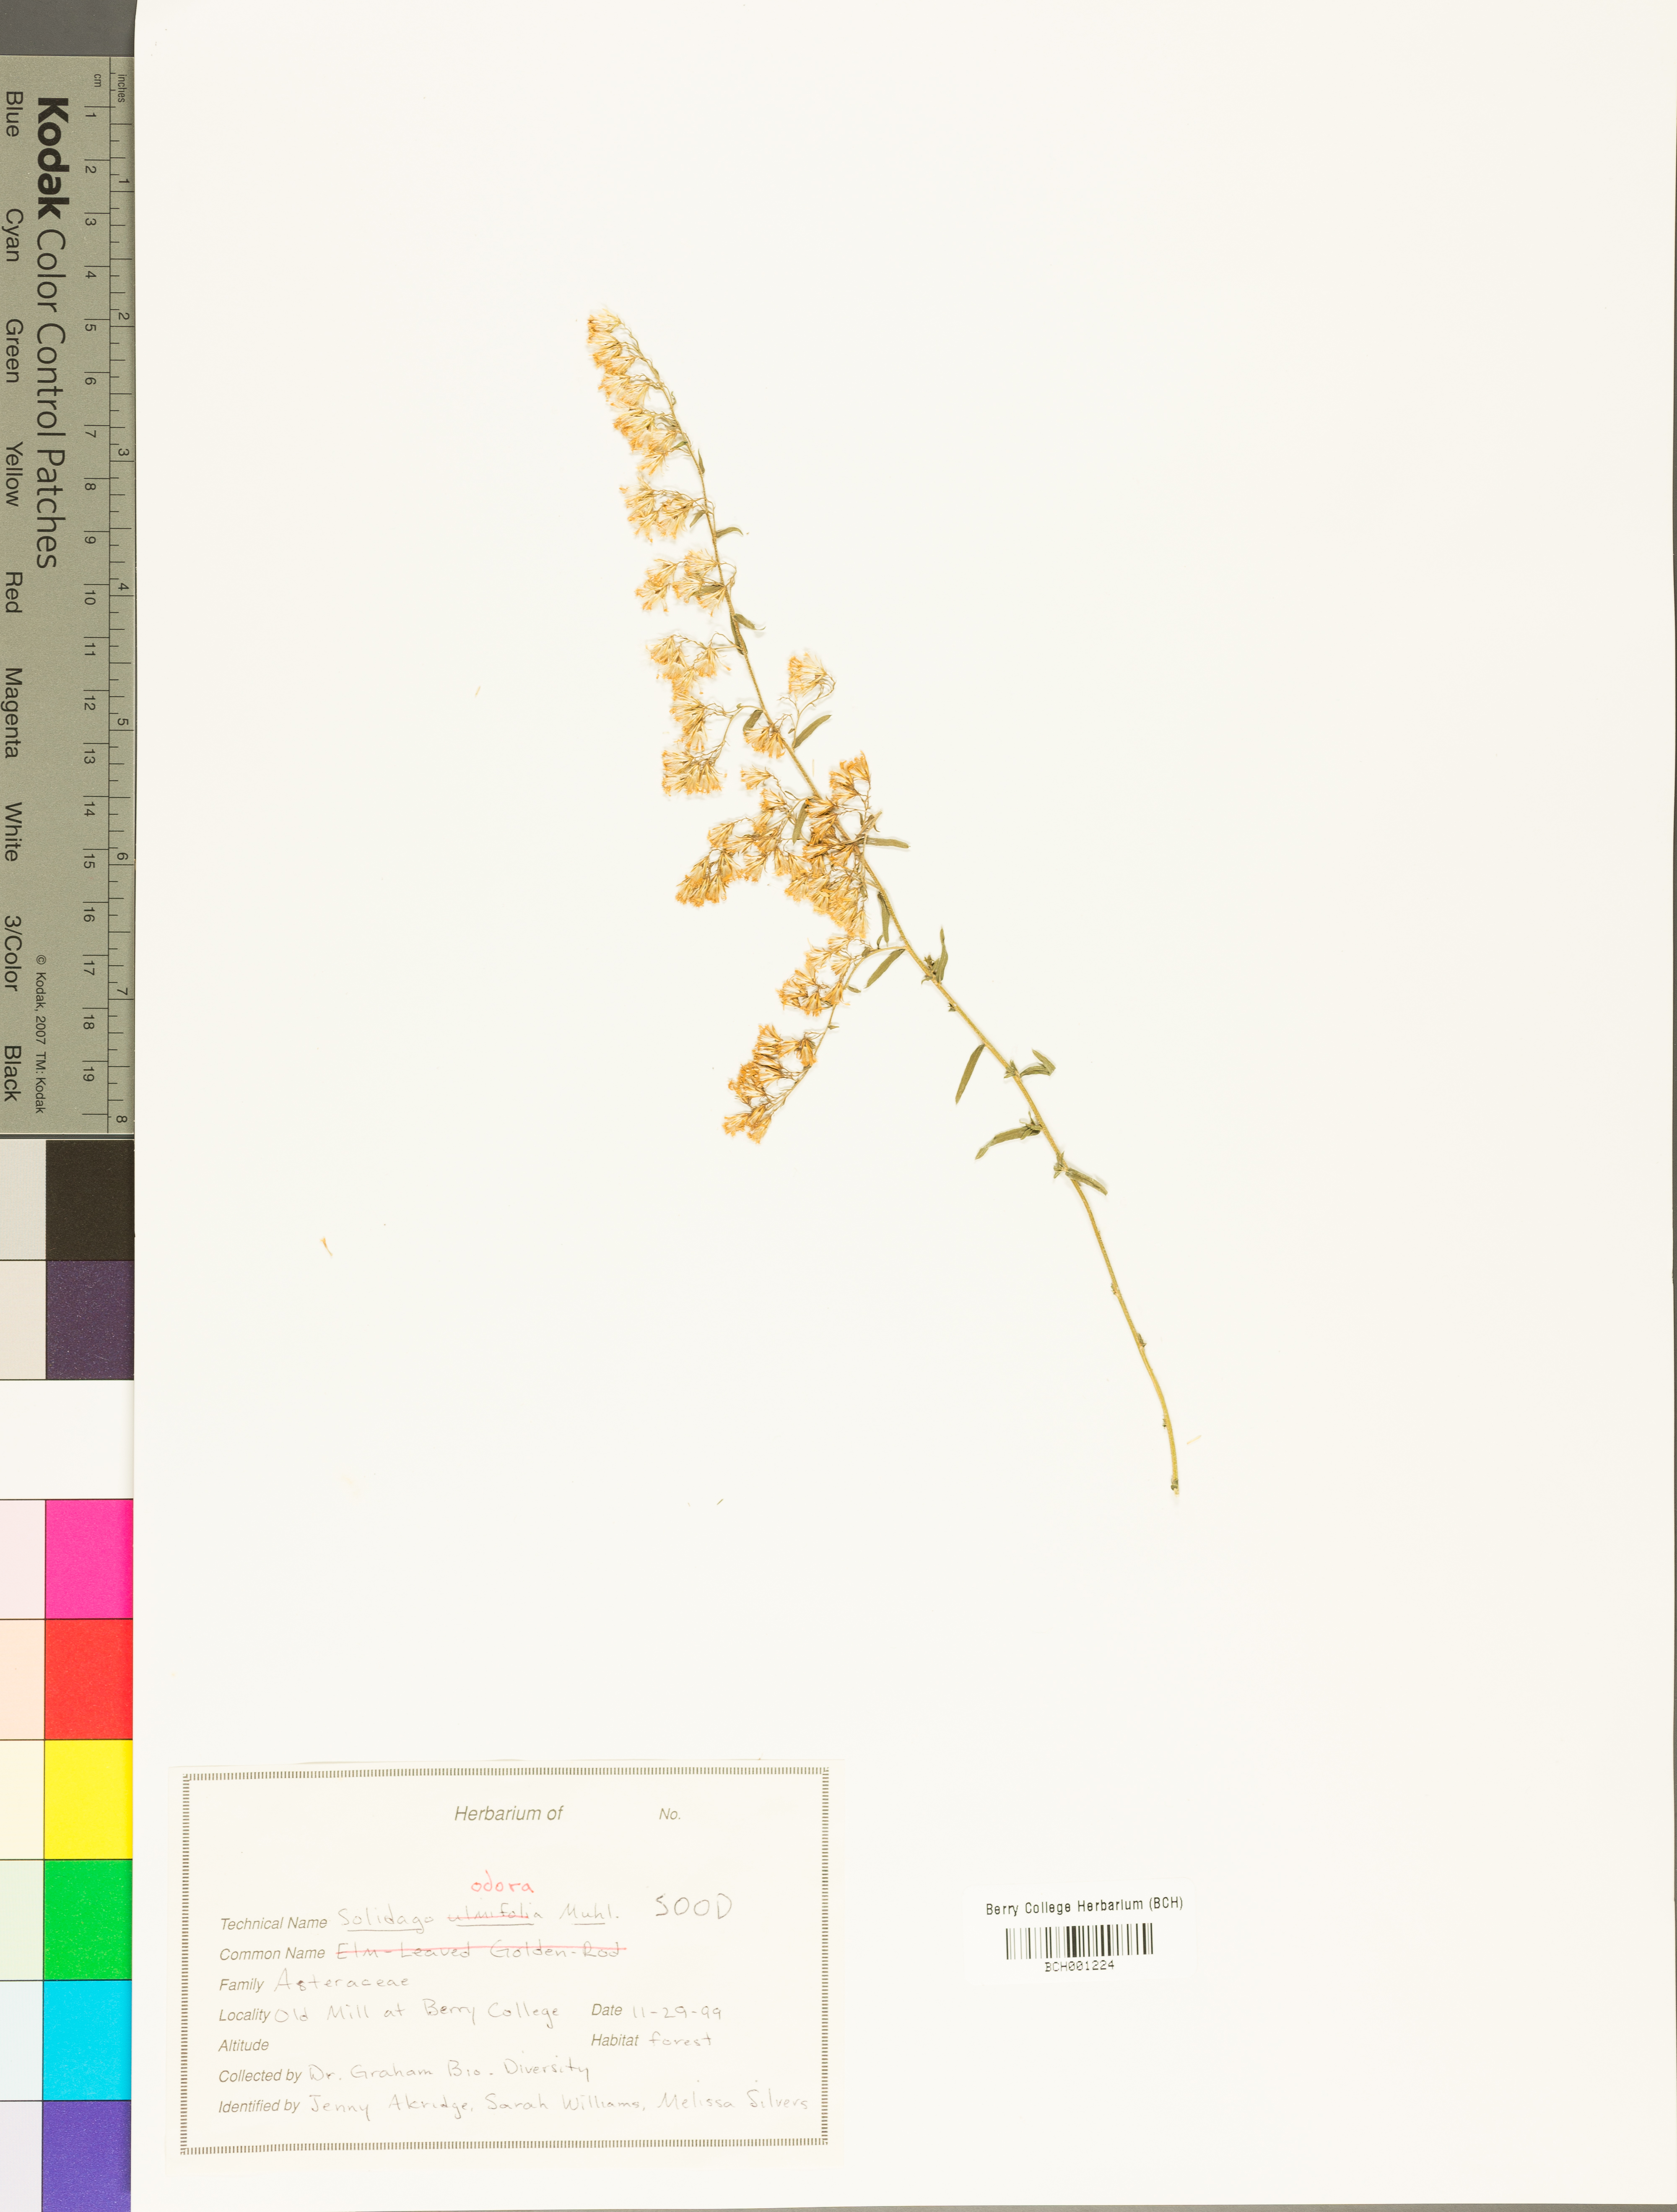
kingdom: Plantae
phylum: Tracheophyta
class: Magnoliopsida
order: Asterales
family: Asteraceae
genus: Solidago
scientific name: Solidago odora
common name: Anise-scented goldenrod
